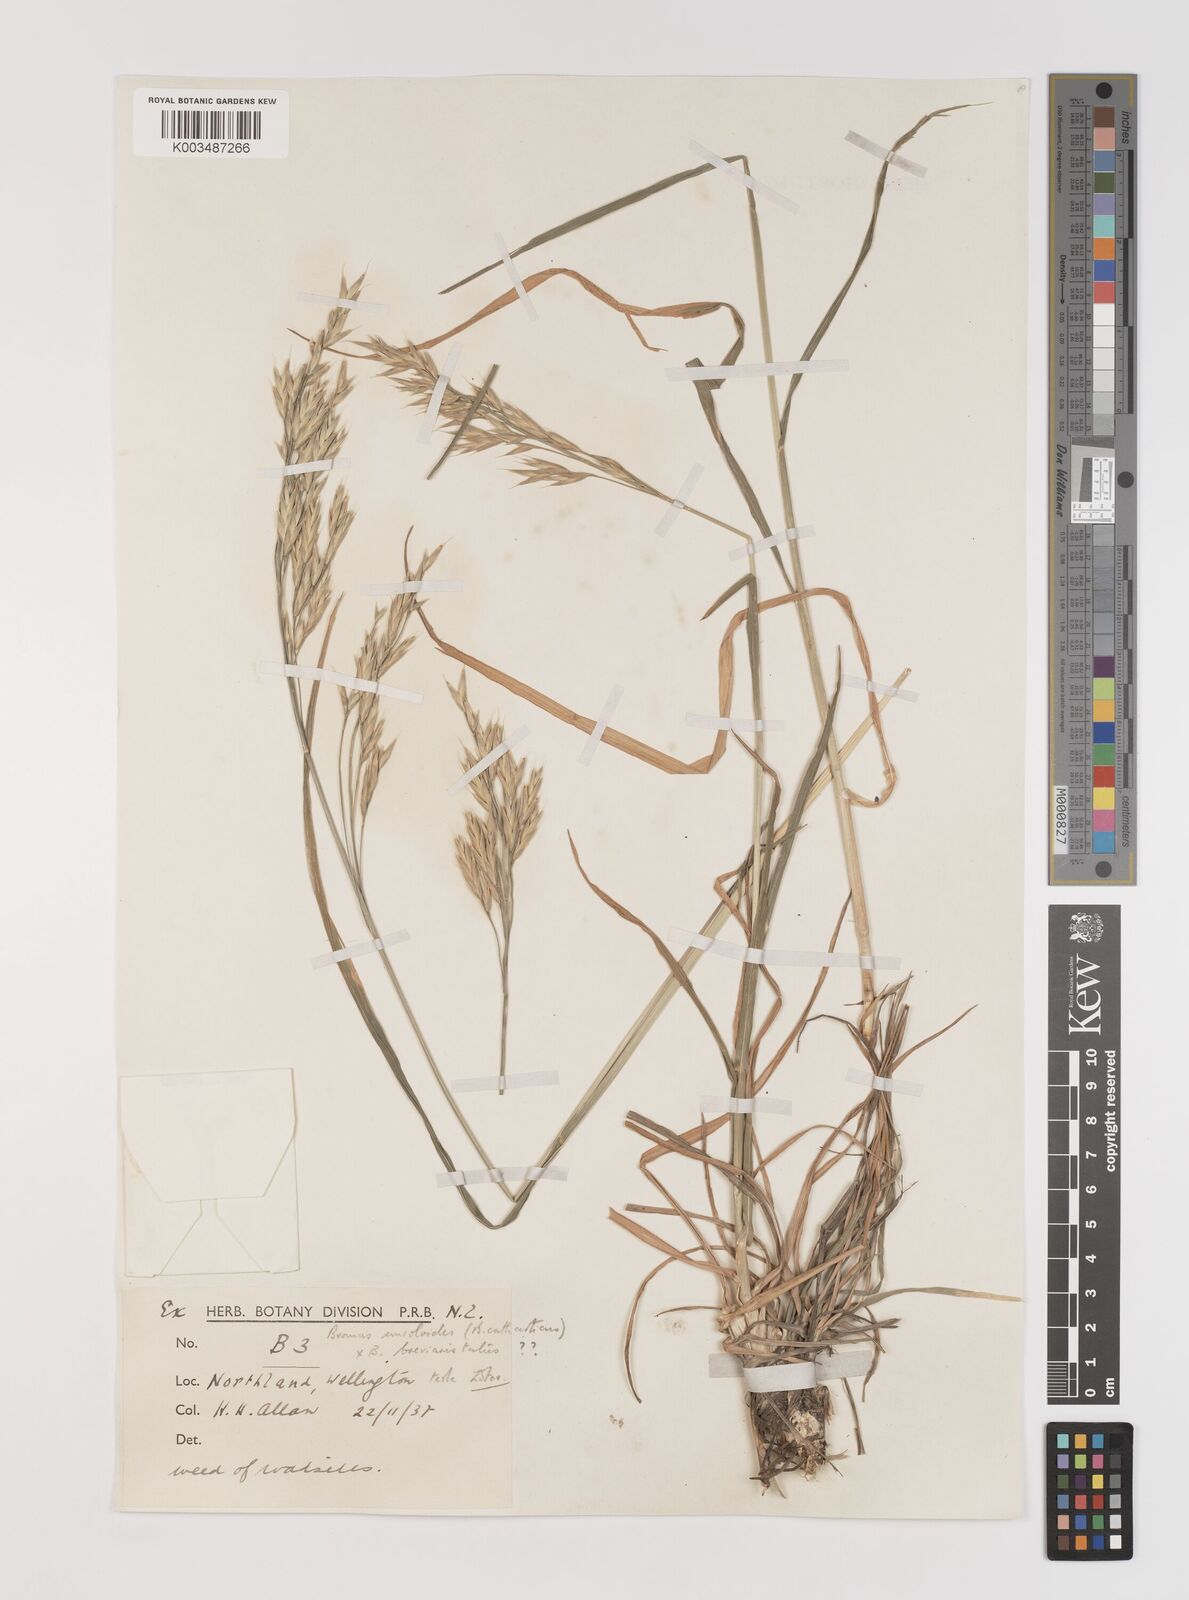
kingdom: Plantae
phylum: Tracheophyta
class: Liliopsida
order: Poales
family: Poaceae
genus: Bromus
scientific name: Bromus marginatus
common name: Western brome
